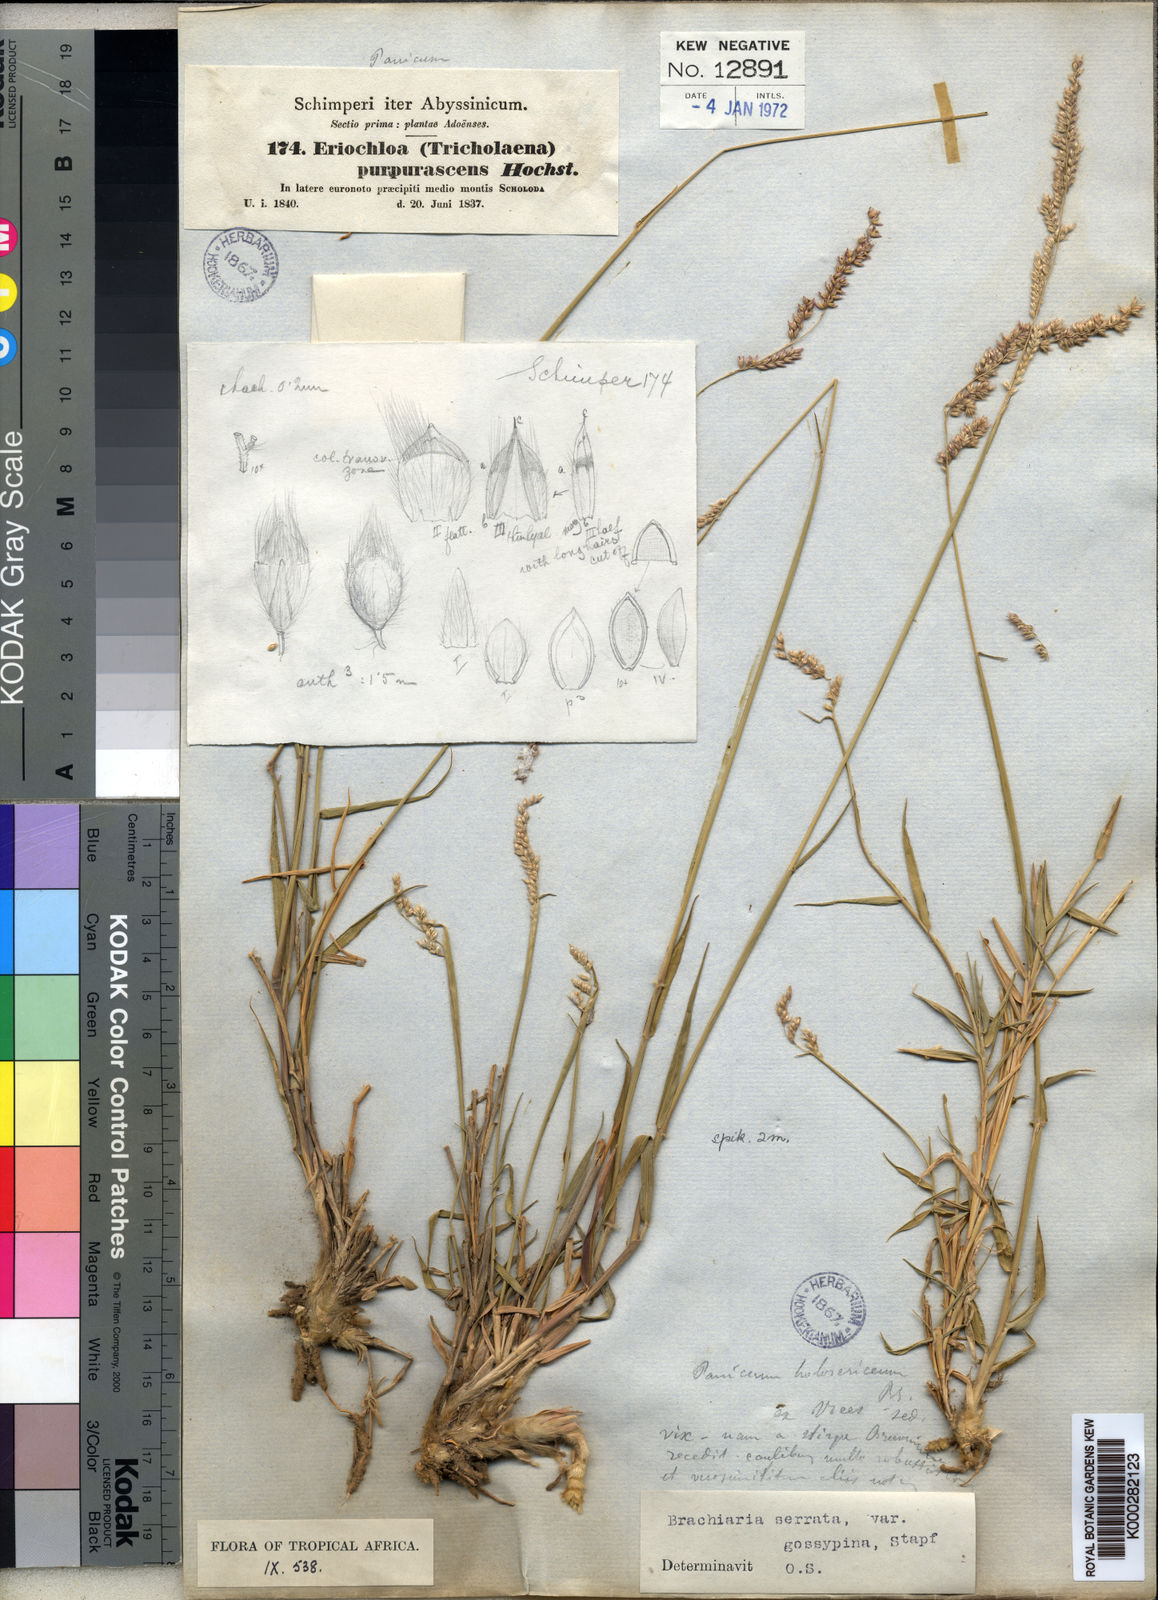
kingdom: Plantae
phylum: Tracheophyta
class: Liliopsida
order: Poales
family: Poaceae
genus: Urochloa
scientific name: Urochloa serrata
